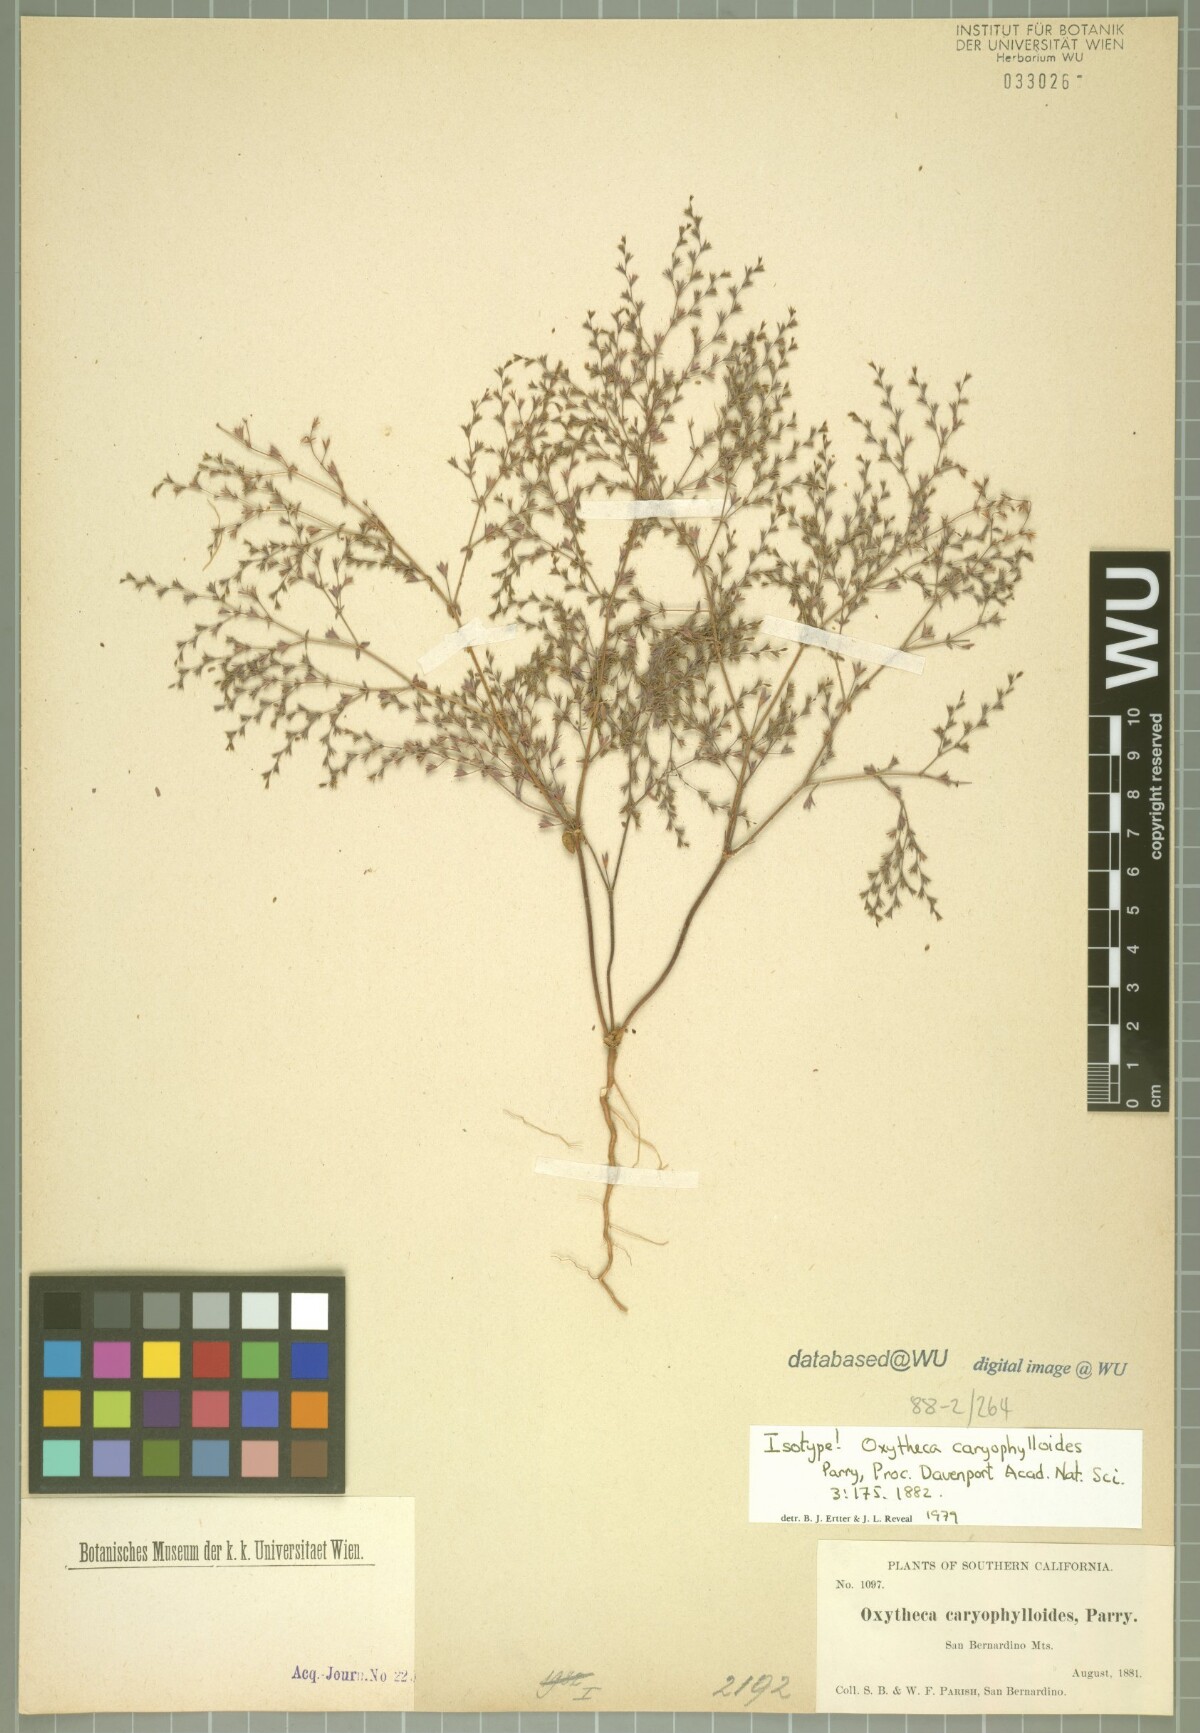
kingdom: Plantae
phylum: Tracheophyta
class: Magnoliopsida
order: Caryophyllales
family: Polygonaceae
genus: Sidotheca
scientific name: Sidotheca caryophylloides
